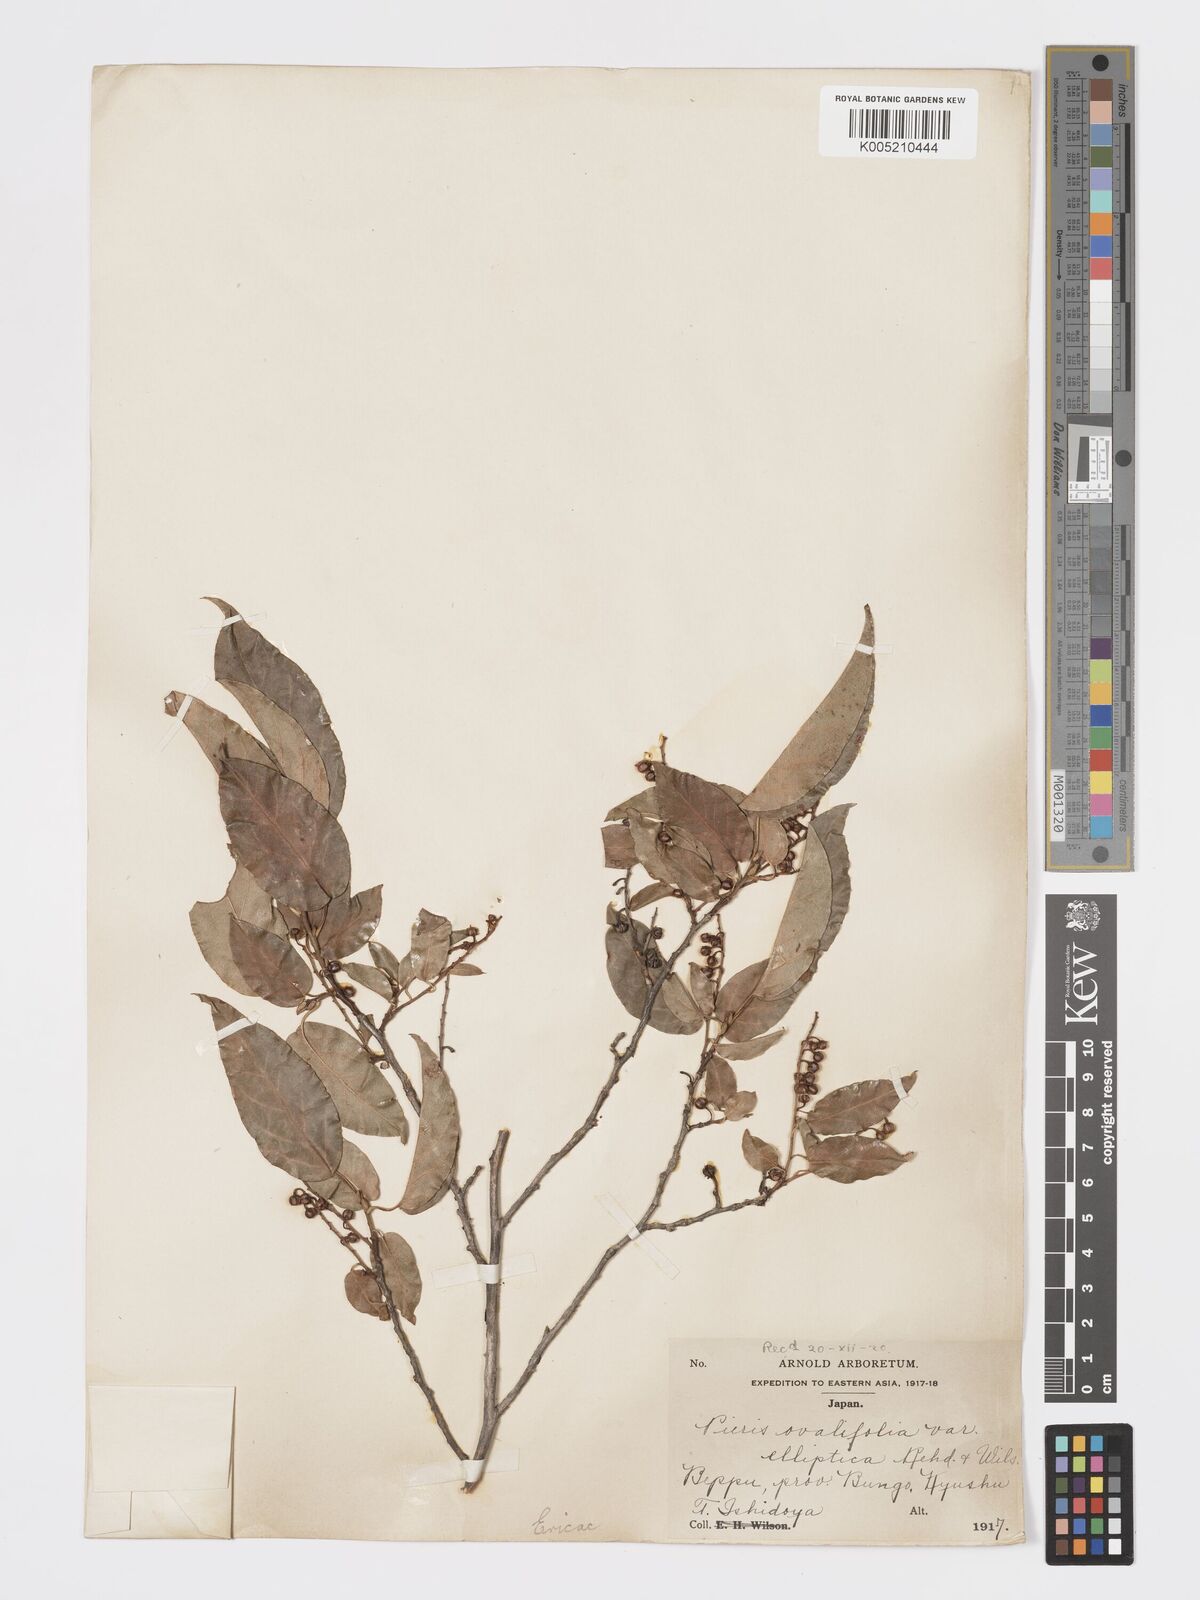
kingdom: Plantae
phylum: Tracheophyta
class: Magnoliopsida
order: Ericales
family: Ericaceae
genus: Lyonia
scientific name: Lyonia elliptica
